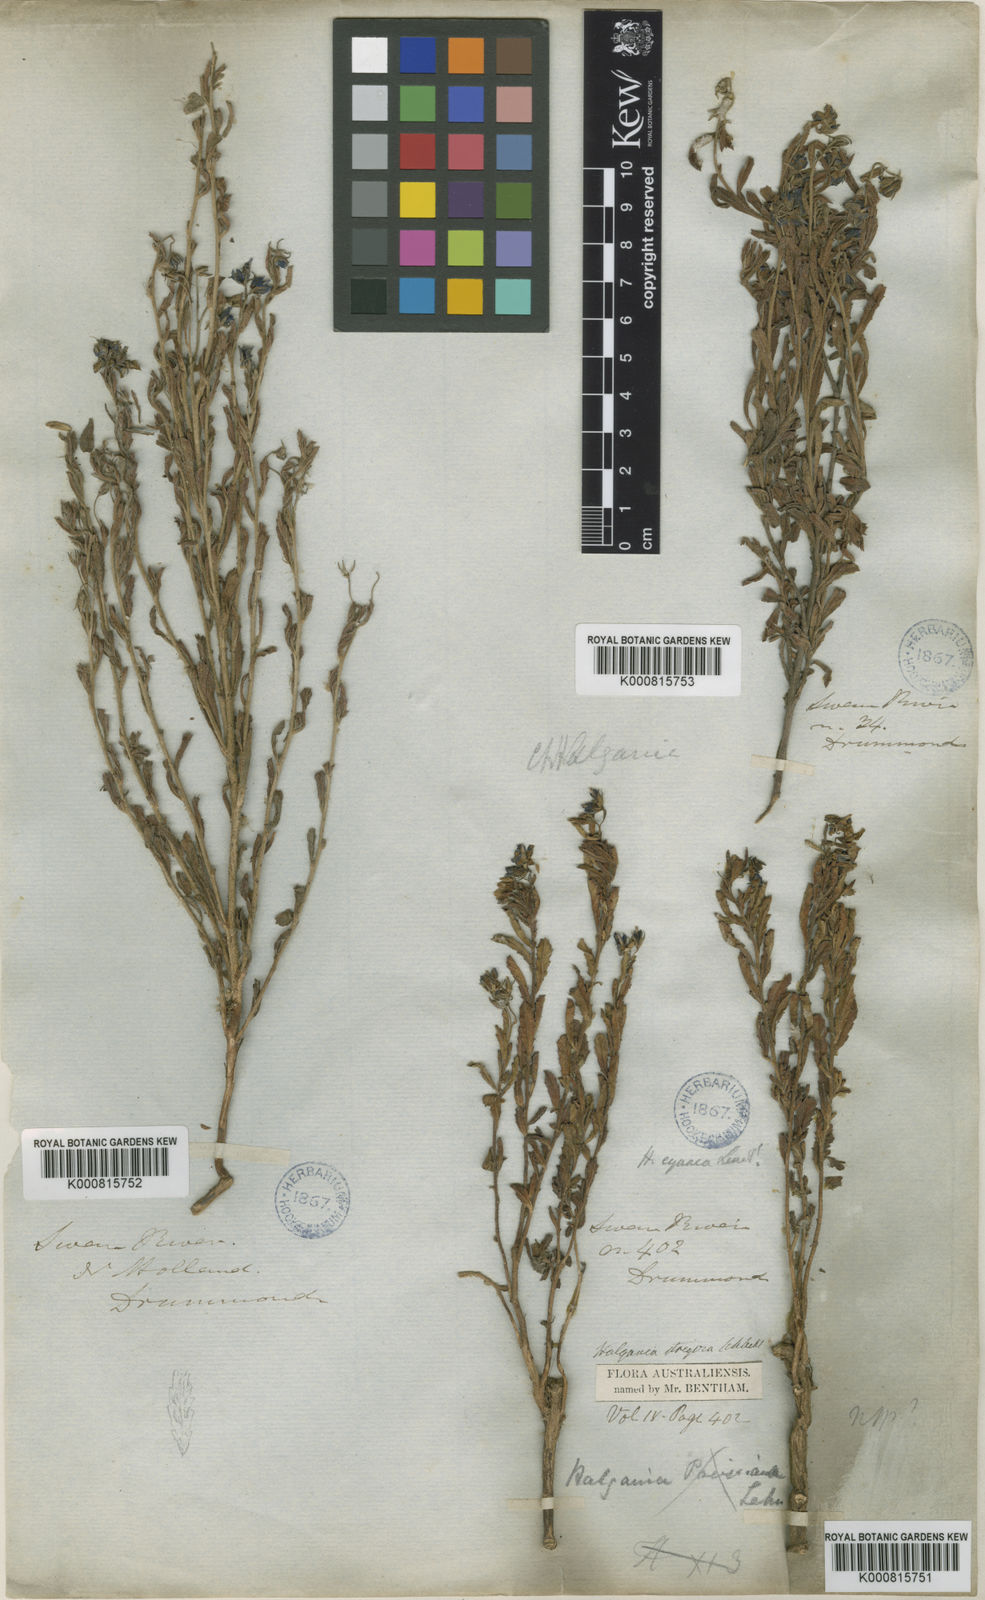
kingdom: Plantae
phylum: Tracheophyta
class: Magnoliopsida
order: Boraginales
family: Ehretiaceae
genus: Halgania
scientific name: Halgania cyanea
